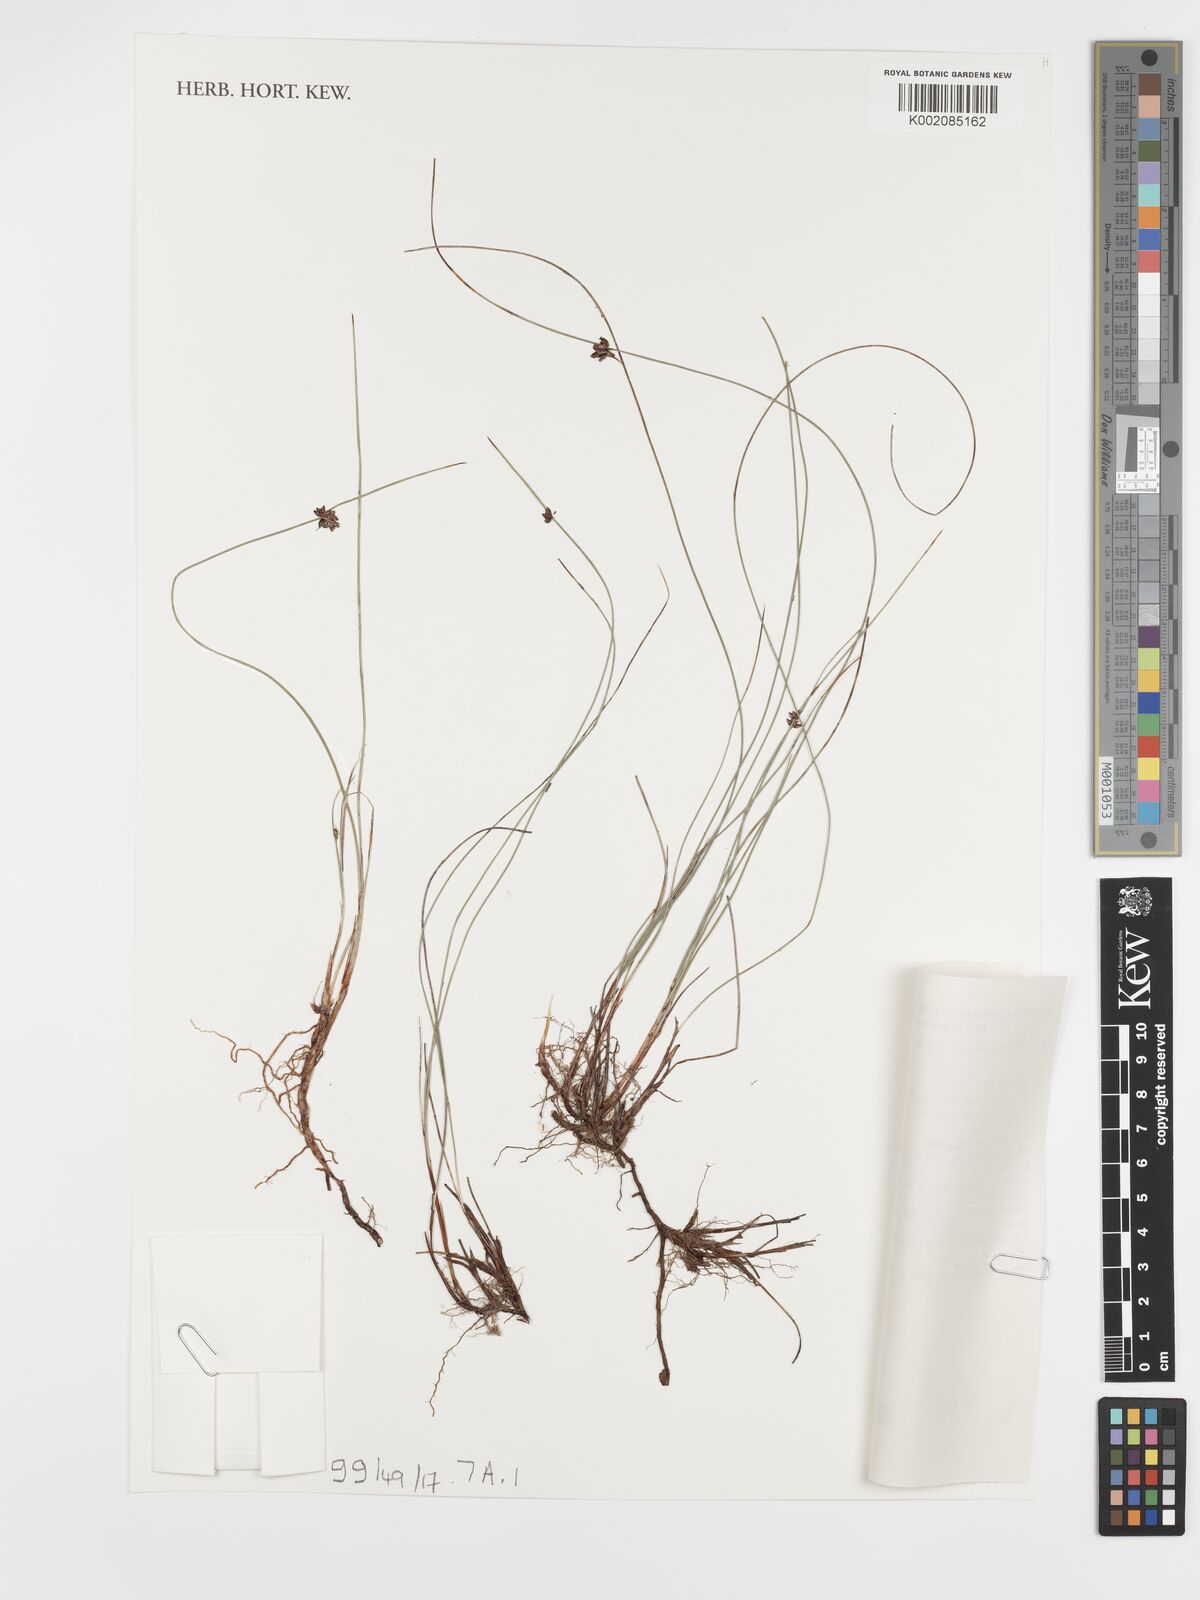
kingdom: Plantae
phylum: Tracheophyta
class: Liliopsida
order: Poales
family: Cyperaceae
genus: Schoenus
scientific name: Schoenus nitens
